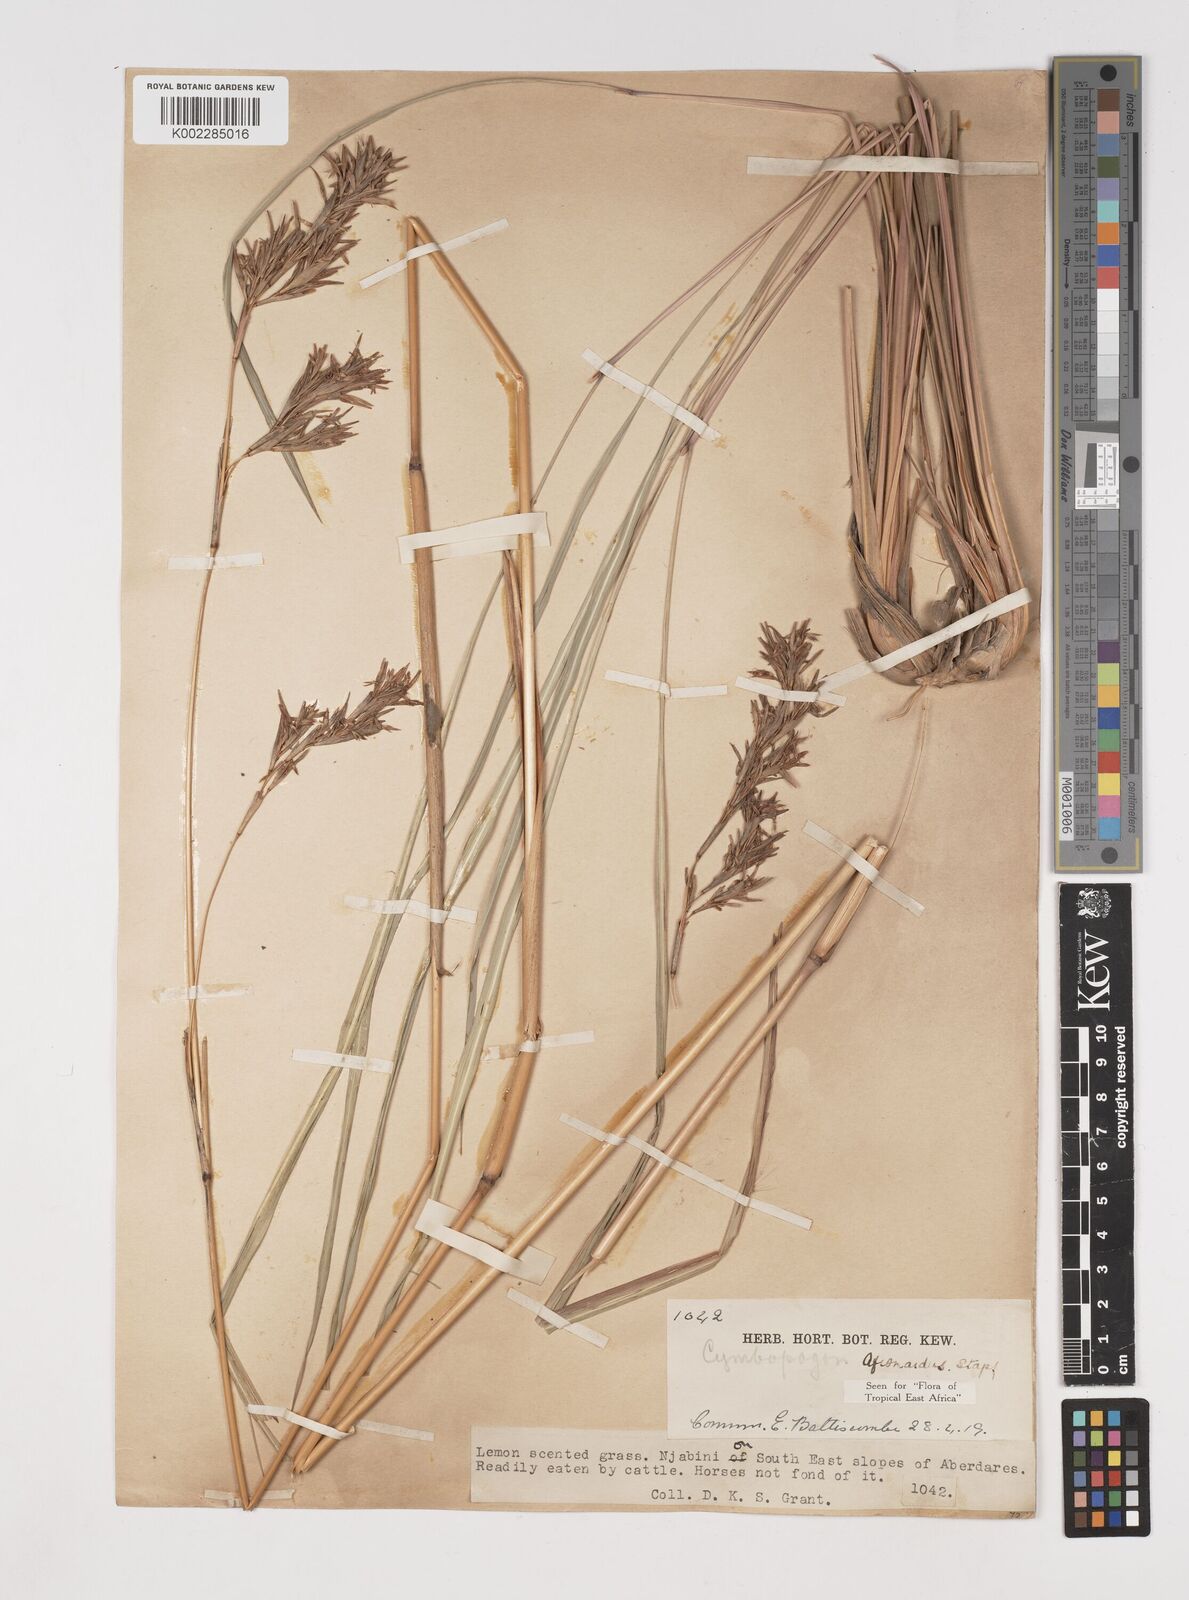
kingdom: Plantae
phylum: Tracheophyta
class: Liliopsida
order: Poales
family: Poaceae
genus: Cymbopogon
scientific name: Cymbopogon nardus
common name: Giant turpentine grass
